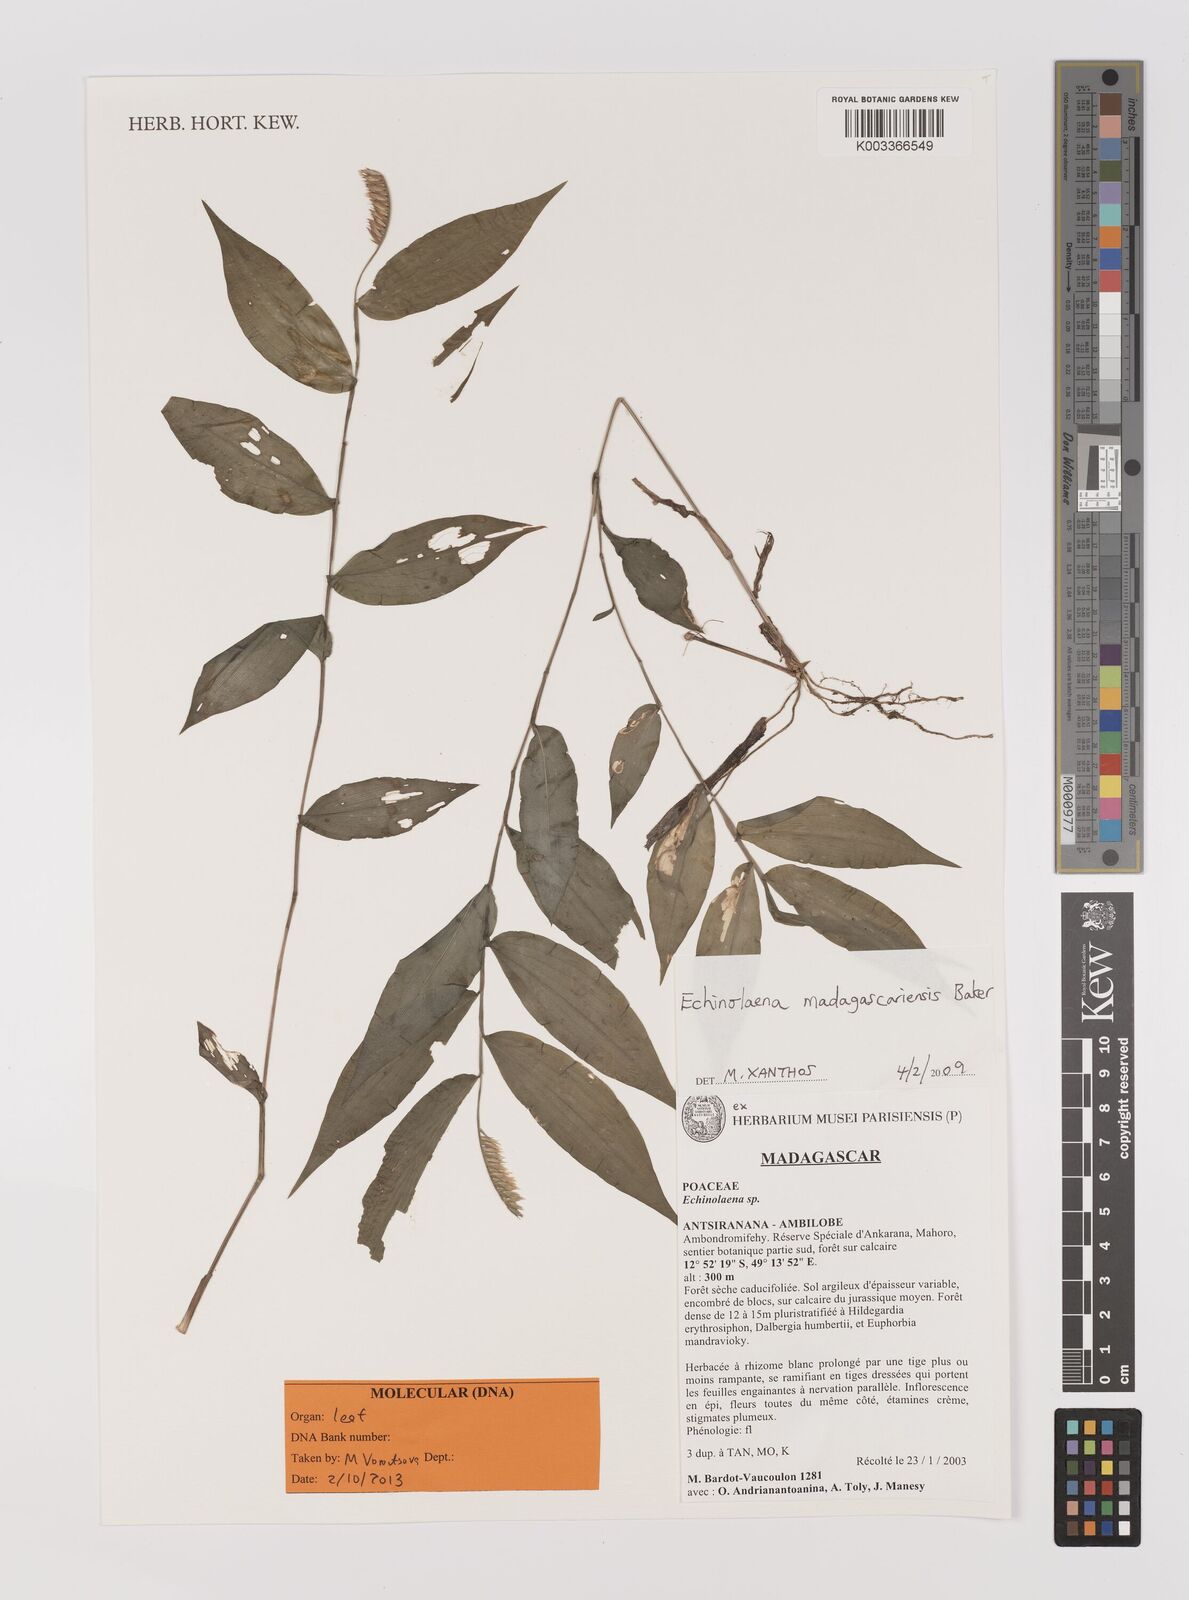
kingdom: Plantae
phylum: Tracheophyta
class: Liliopsida
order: Poales
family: Poaceae
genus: Chasechloa
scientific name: Chasechloa madagascariensis
